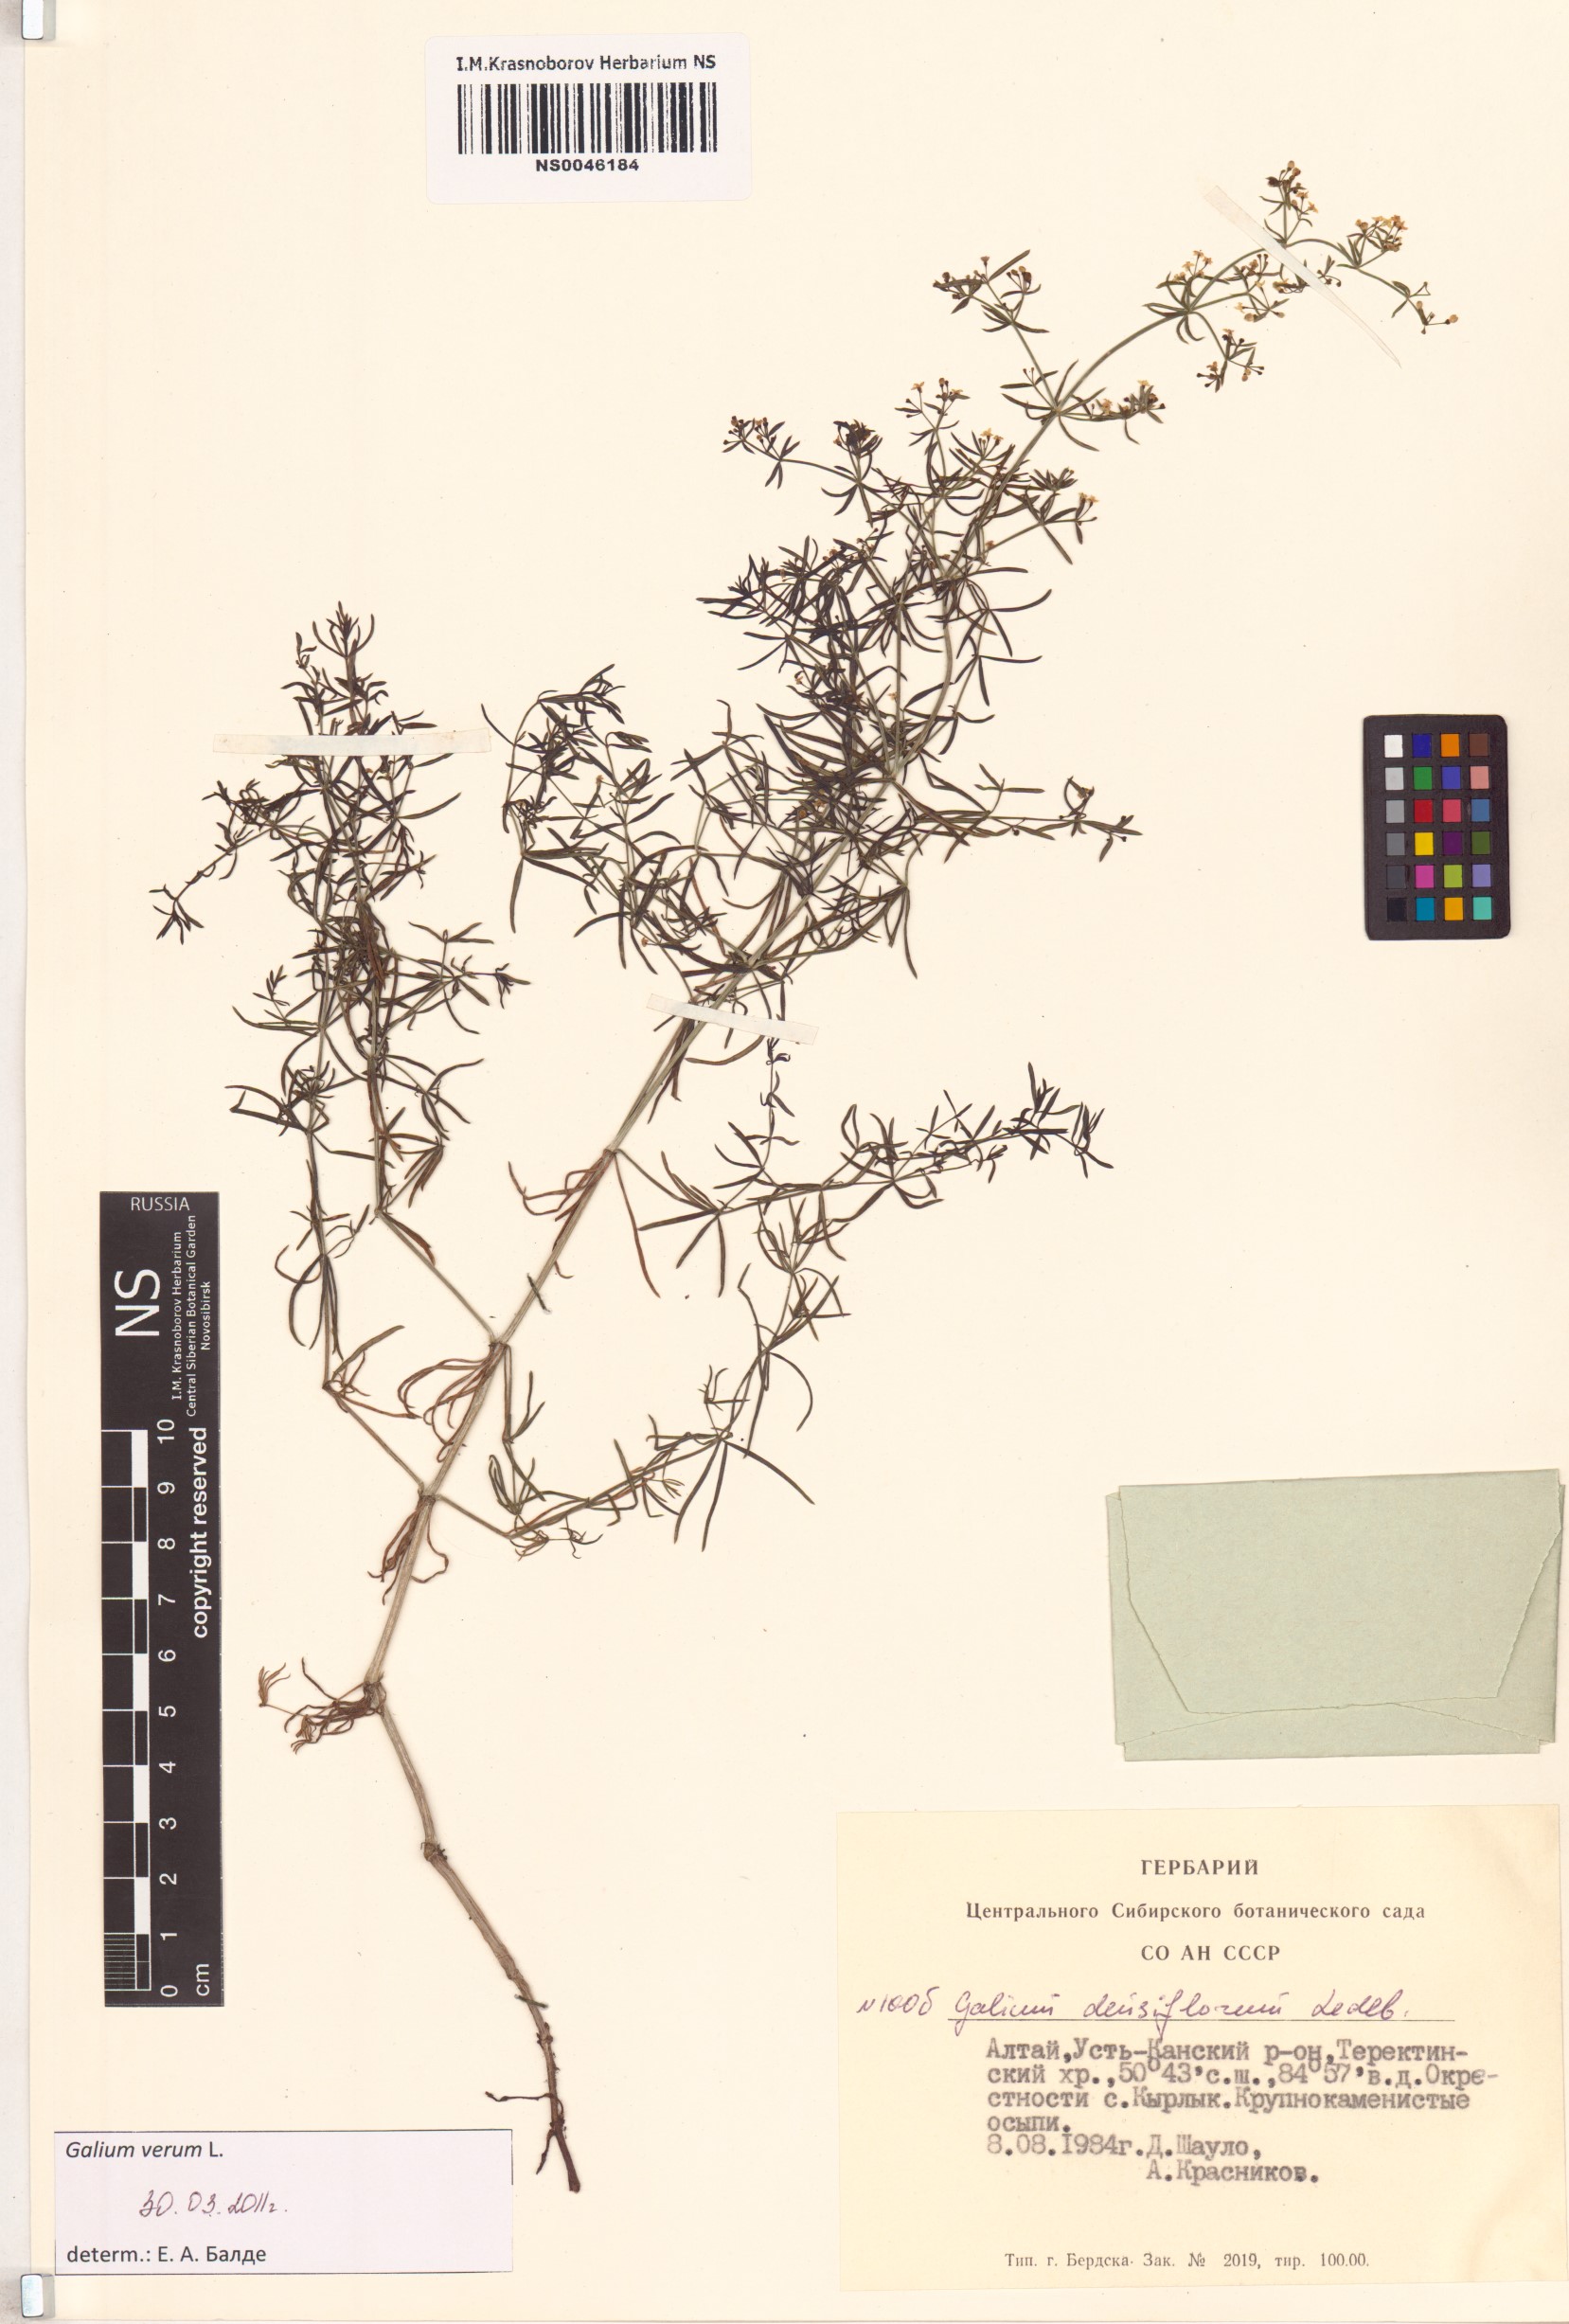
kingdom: Plantae
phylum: Tracheophyta
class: Magnoliopsida
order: Gentianales
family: Rubiaceae
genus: Galium
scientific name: Galium verum
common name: Lady's bedstraw
